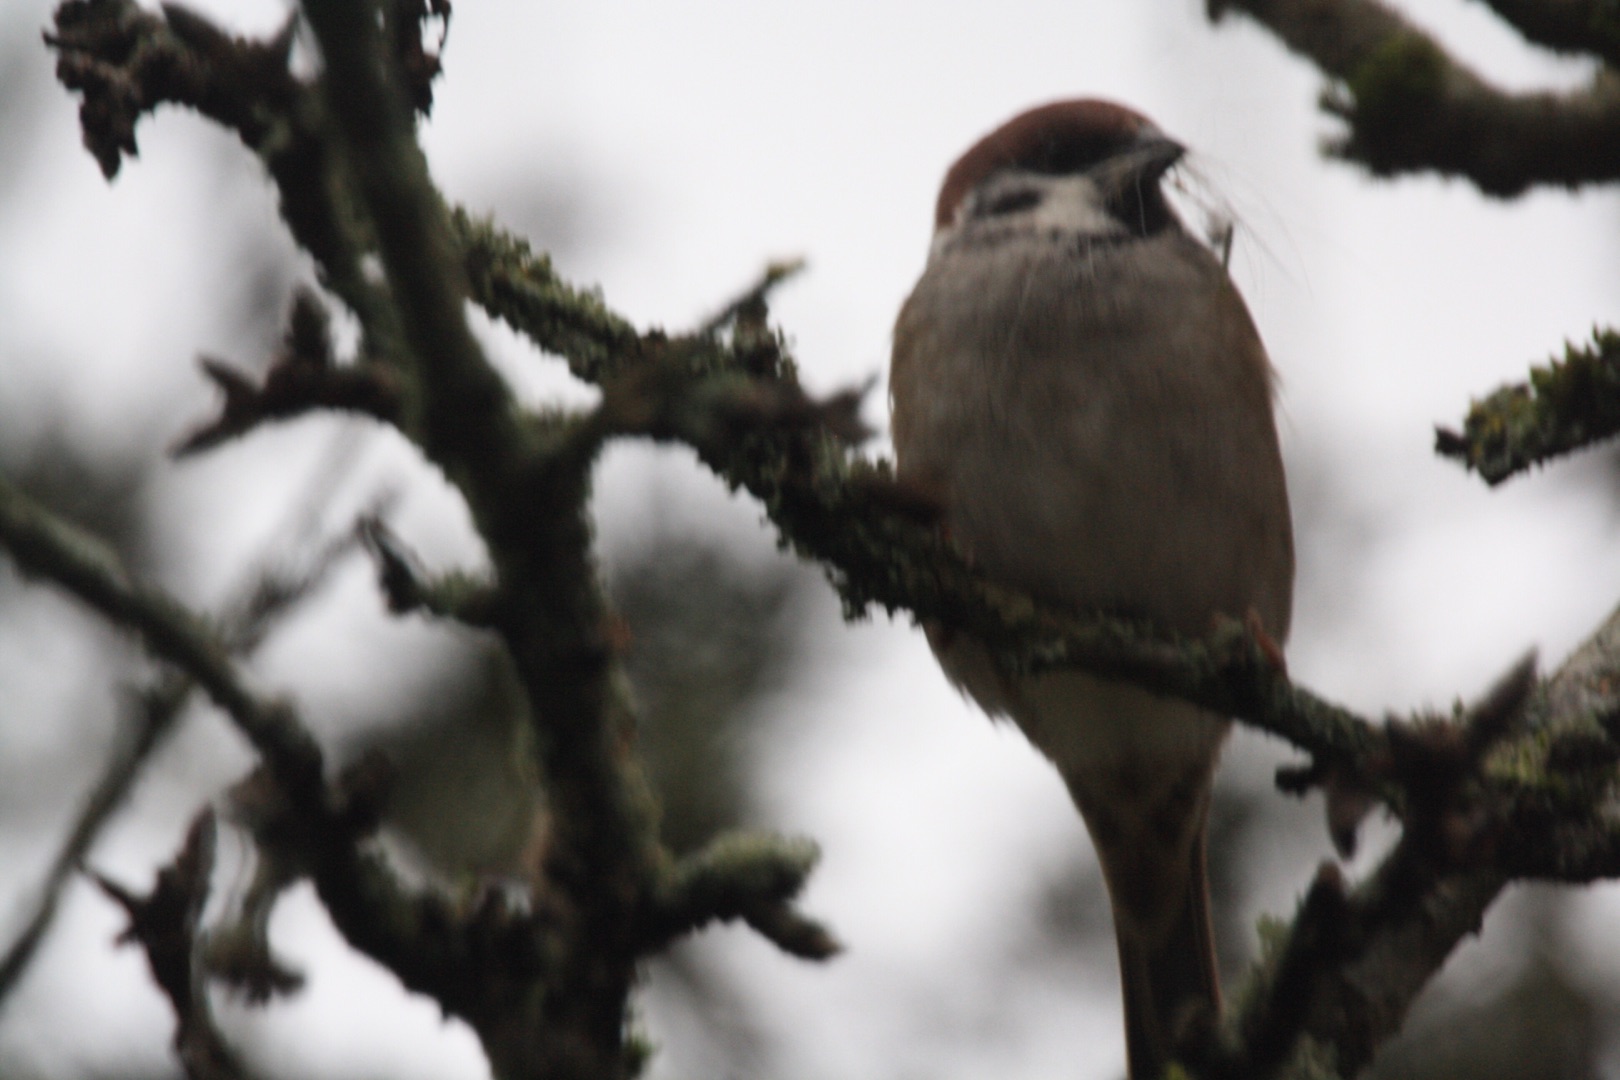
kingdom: Animalia
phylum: Chordata
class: Aves
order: Passeriformes
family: Passeridae
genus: Passer
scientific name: Passer montanus
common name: Skovspurv
